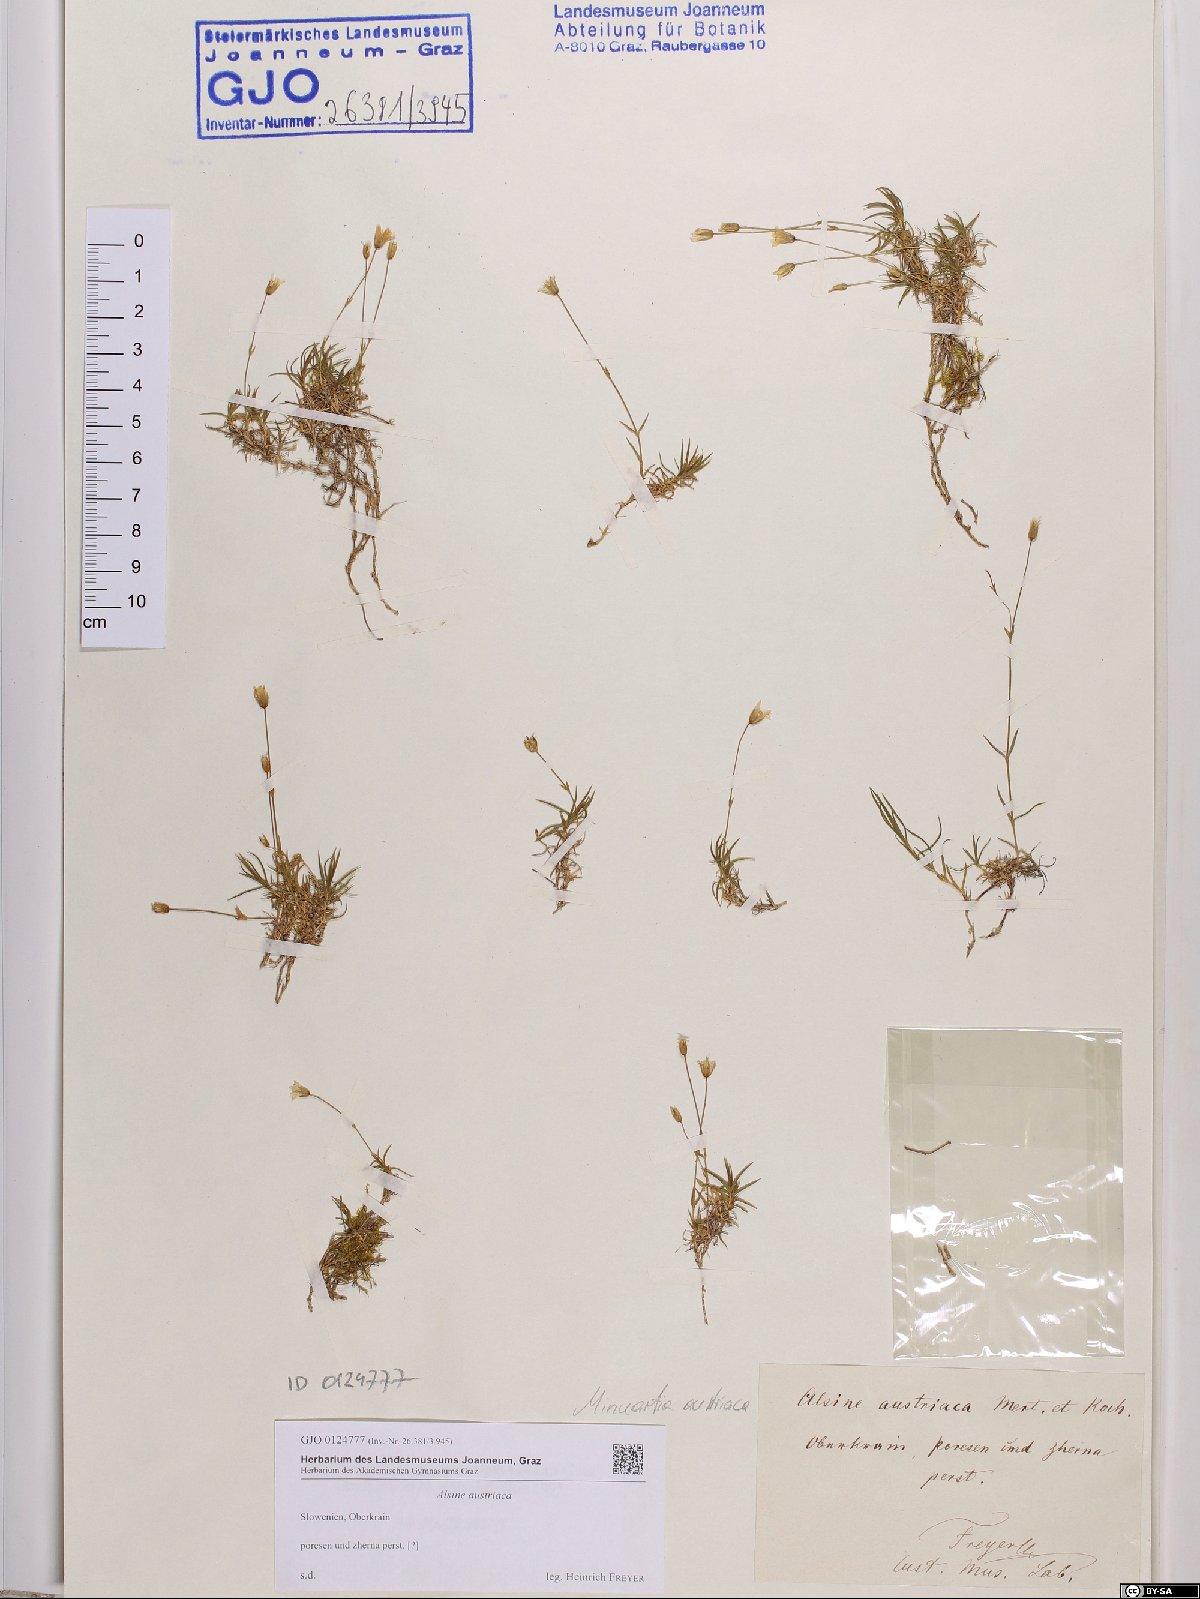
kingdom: Plantae
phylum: Tracheophyta
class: Magnoliopsida
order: Caryophyllales
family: Caryophyllaceae
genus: Sabulina
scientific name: Sabulina austriaca
